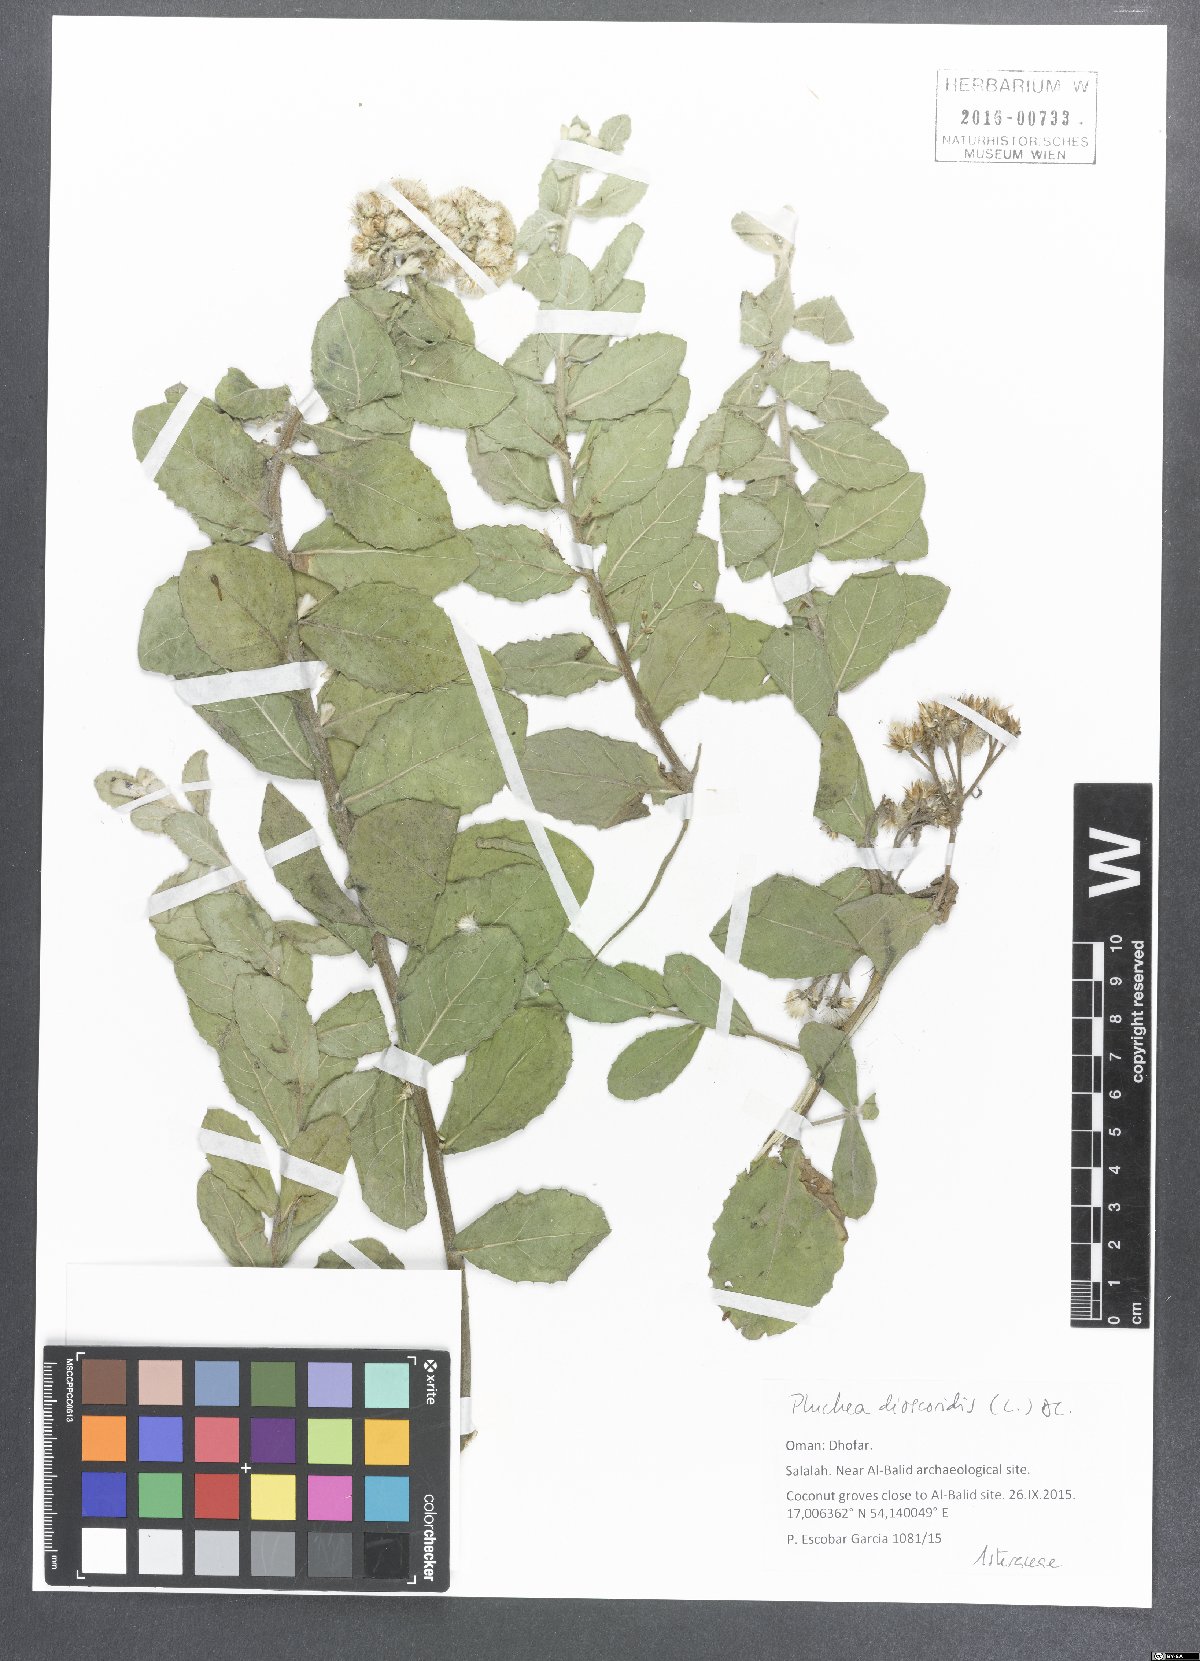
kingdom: Plantae
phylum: Tracheophyta
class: Magnoliopsida
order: Asterales
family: Asteraceae
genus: Pluchea
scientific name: Pluchea dioscoridis
